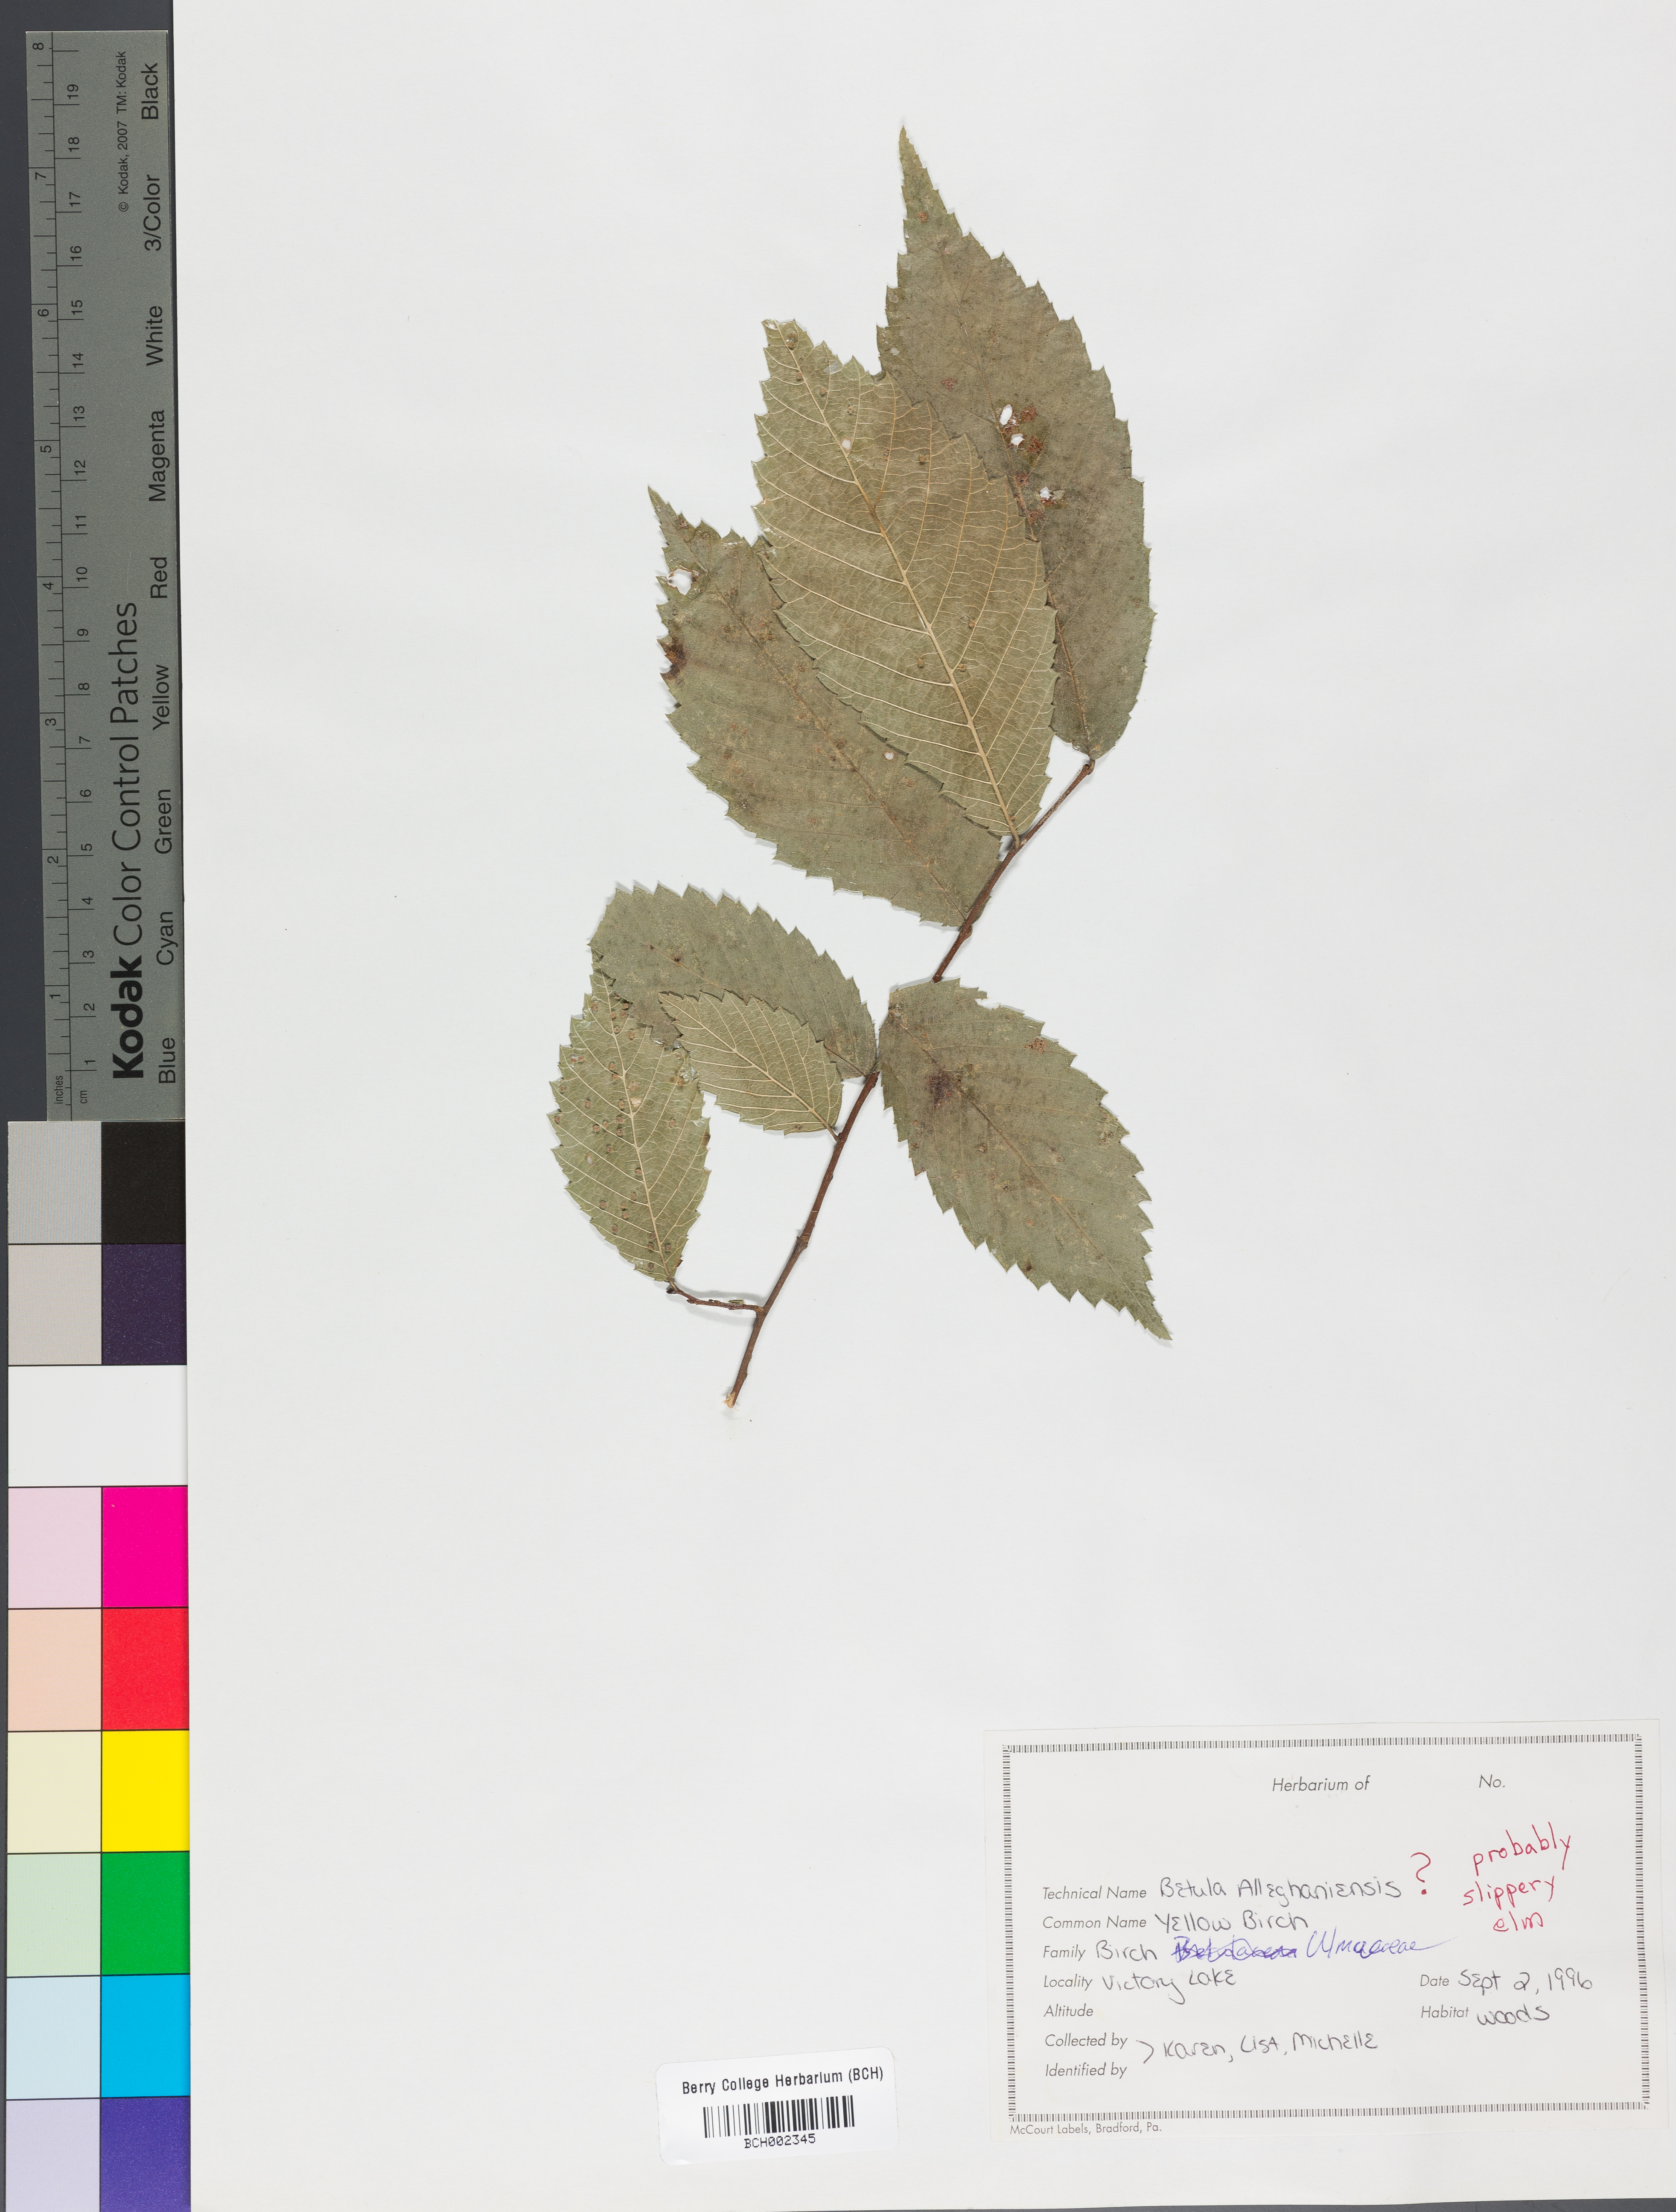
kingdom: Plantae
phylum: Tracheophyta
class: Magnoliopsida
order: Rosales
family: Ulmaceae
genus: Ulmus
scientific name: Ulmus rubra
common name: Slippery elm
